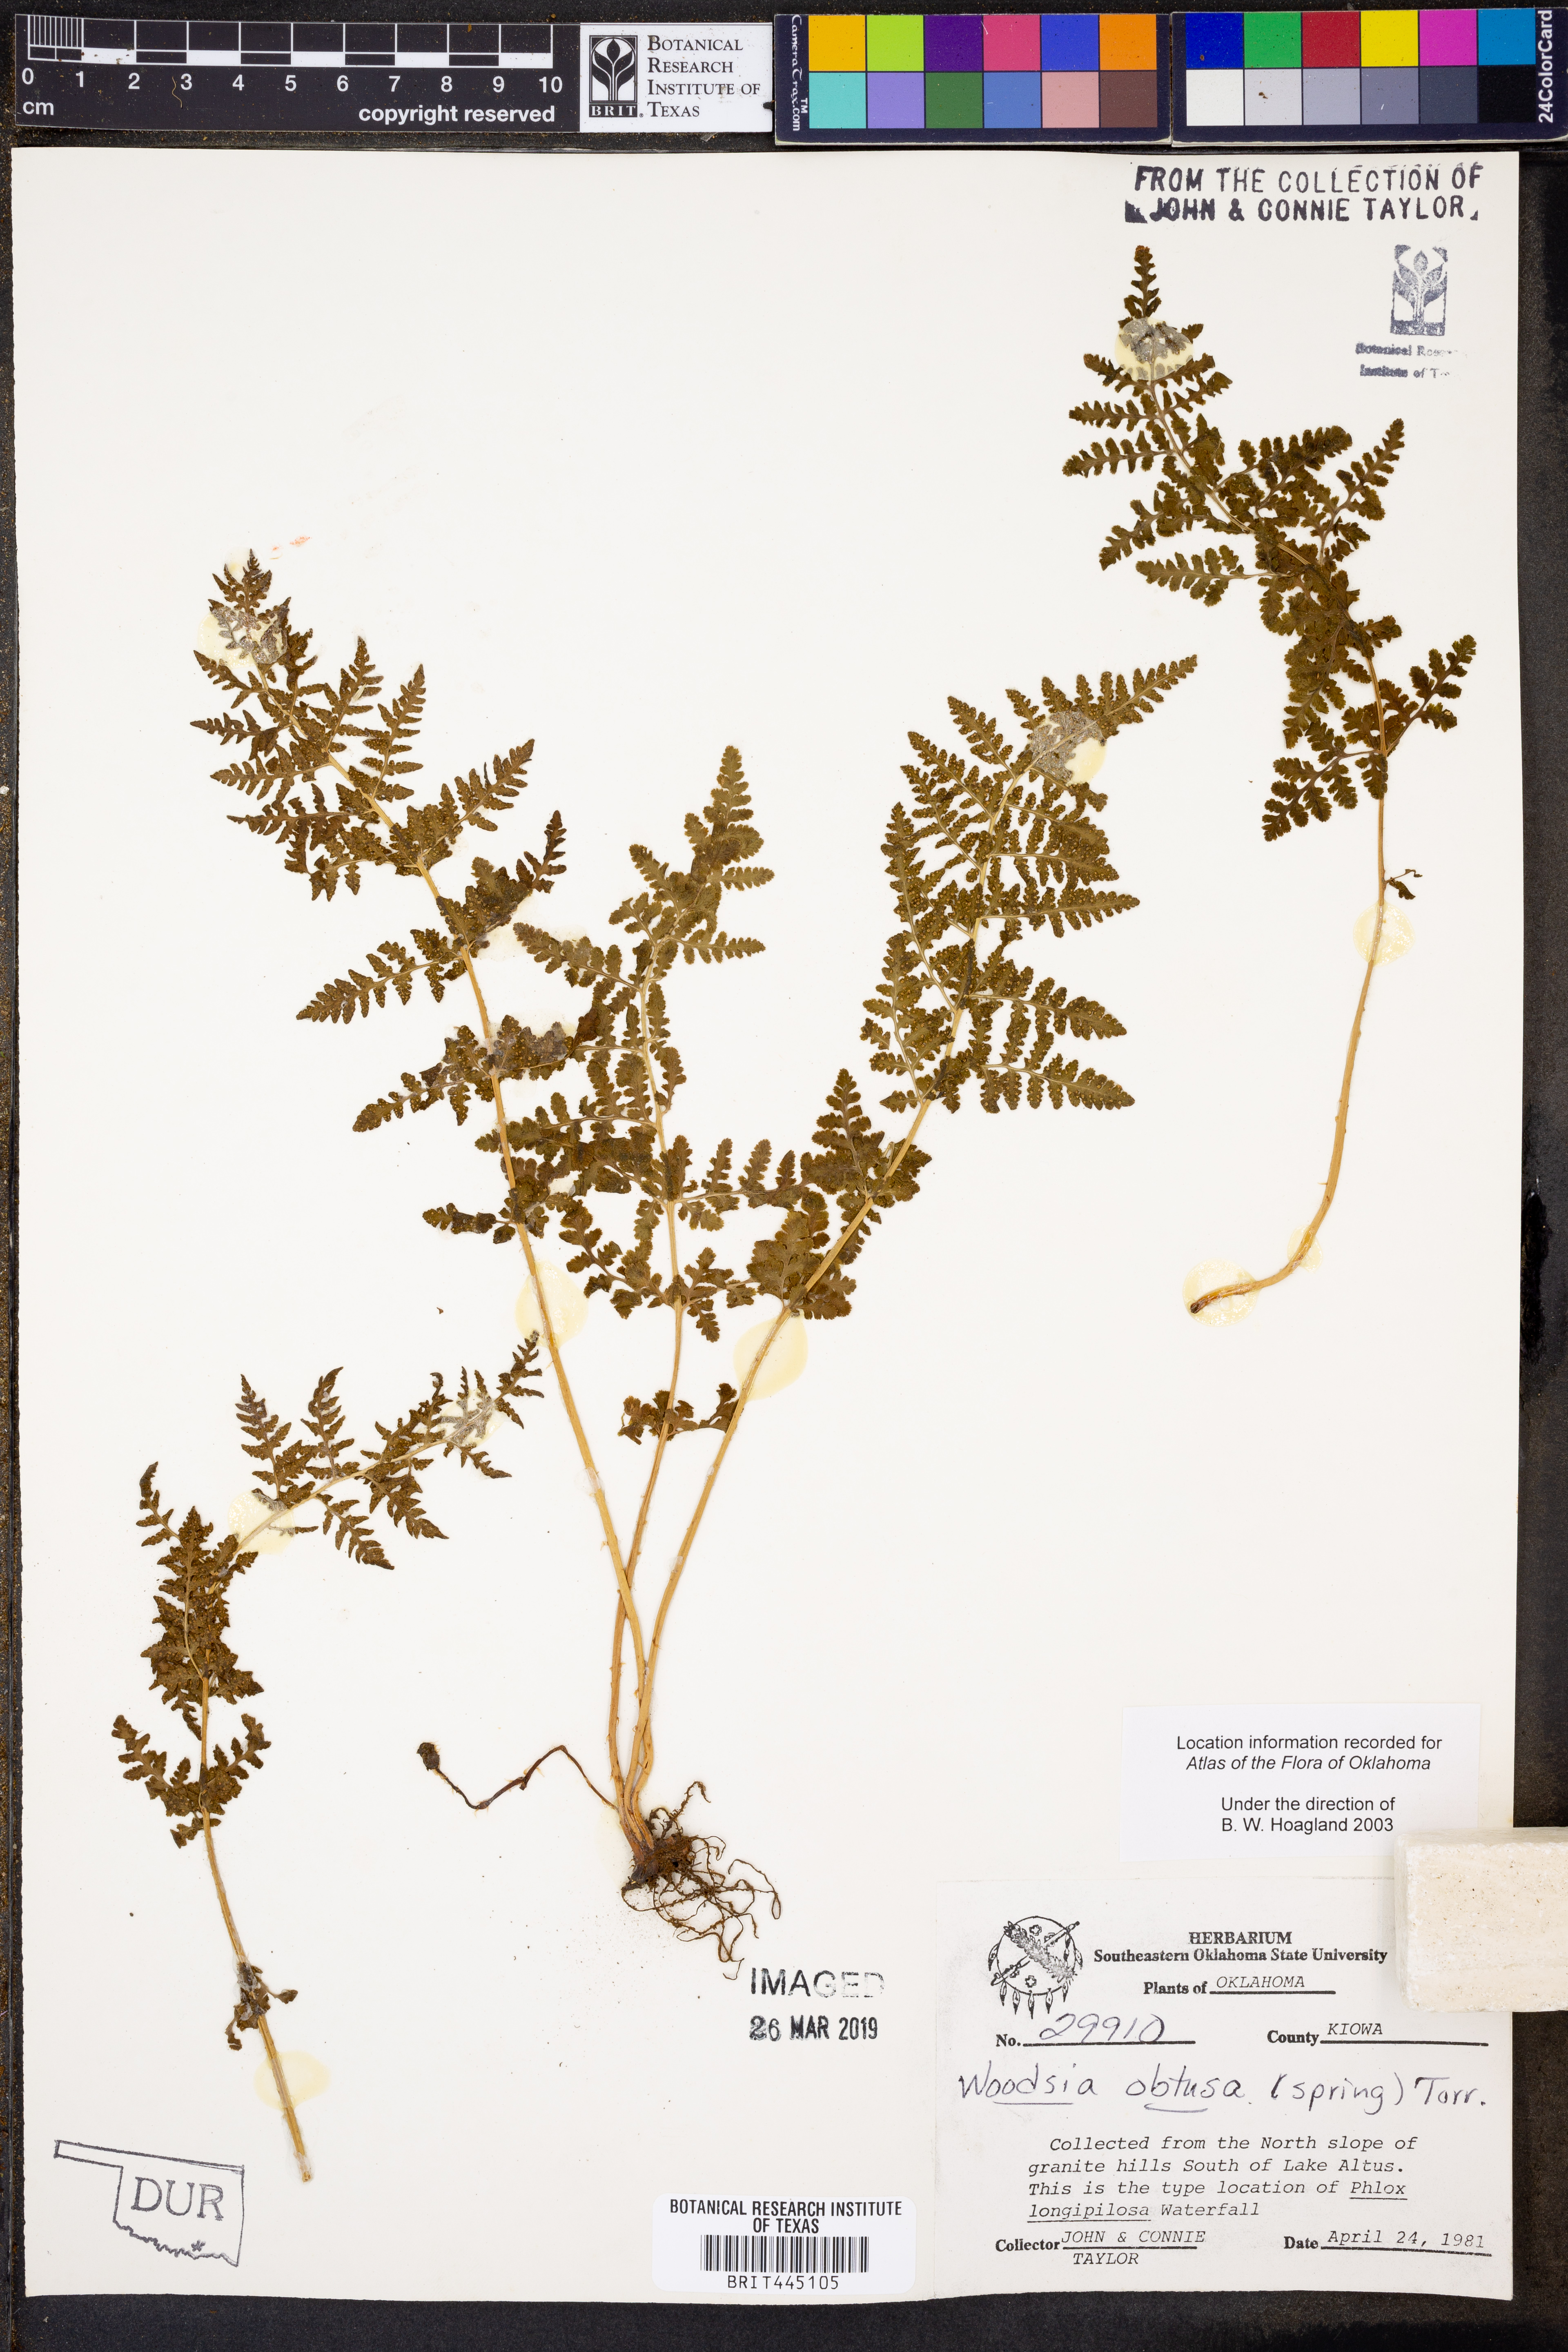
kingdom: Plantae
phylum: Tracheophyta
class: Polypodiopsida
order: Polypodiales
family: Woodsiaceae
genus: Physematium
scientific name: Physematium obtusum
